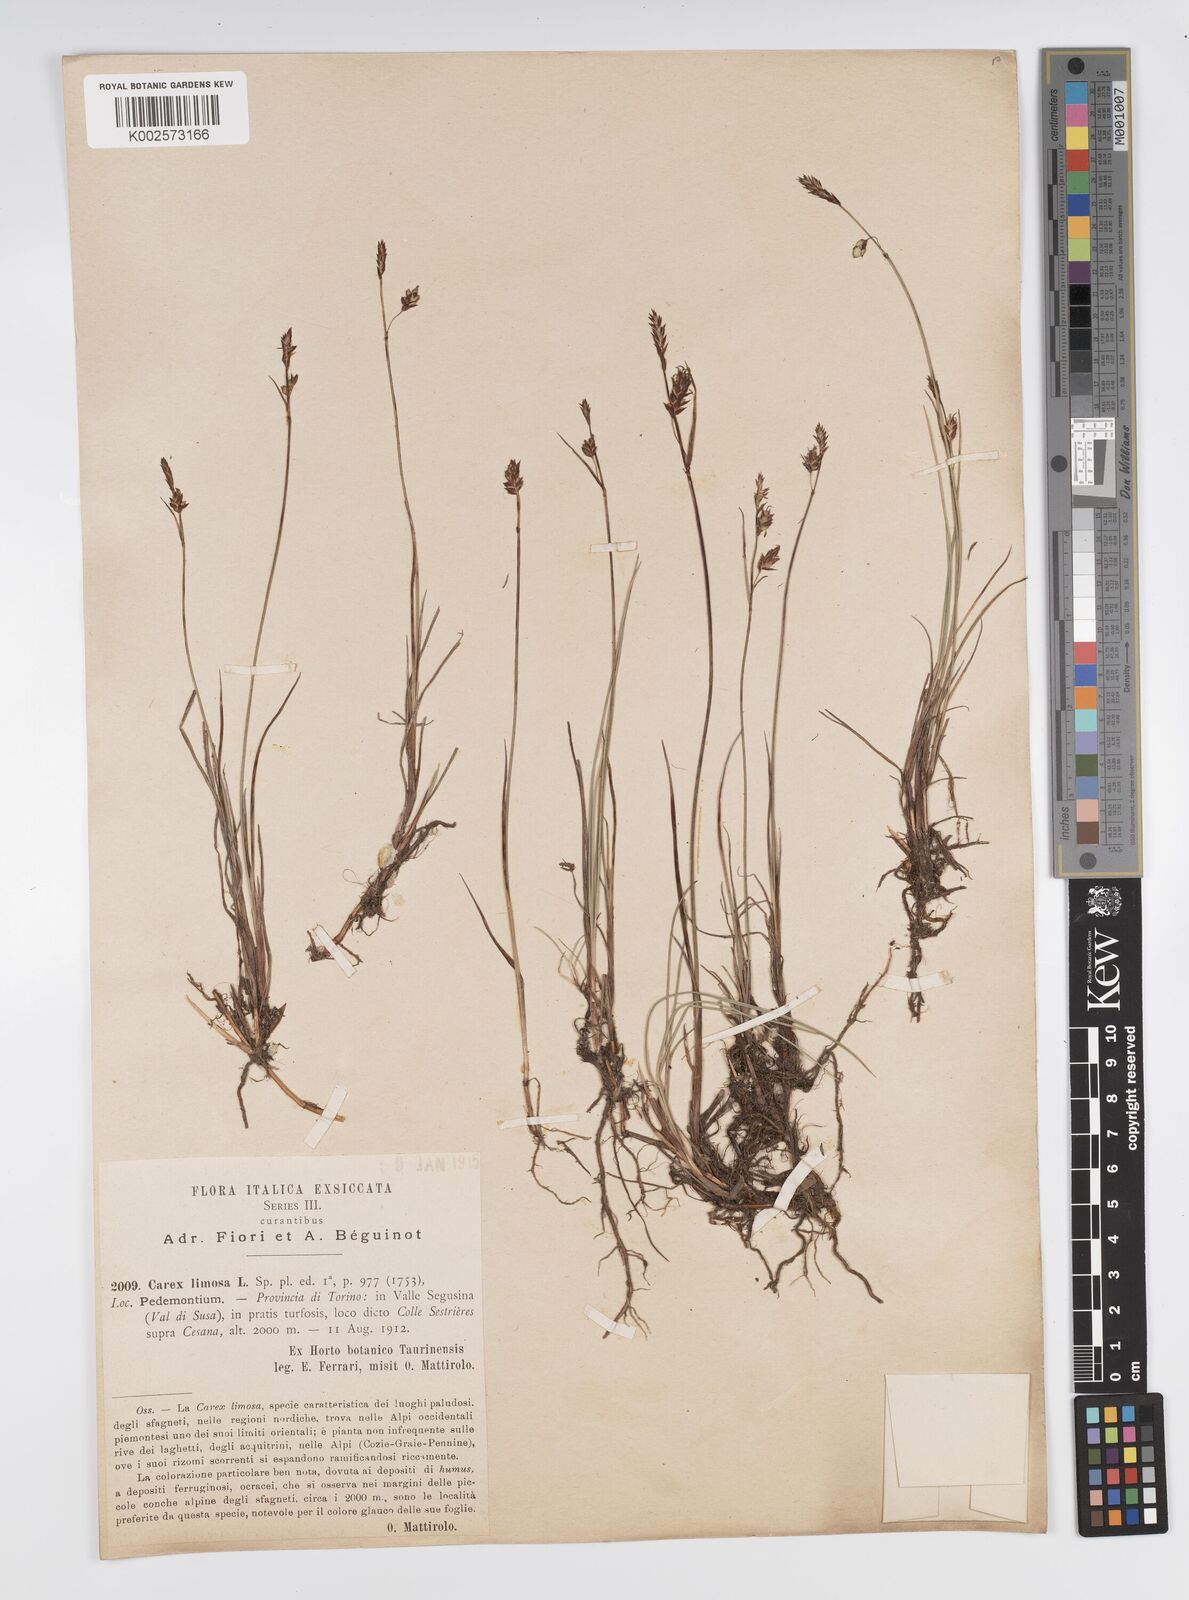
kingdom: Plantae
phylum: Tracheophyta
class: Liliopsida
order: Poales
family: Cyperaceae
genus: Carex
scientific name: Carex limosa
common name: Bog sedge
